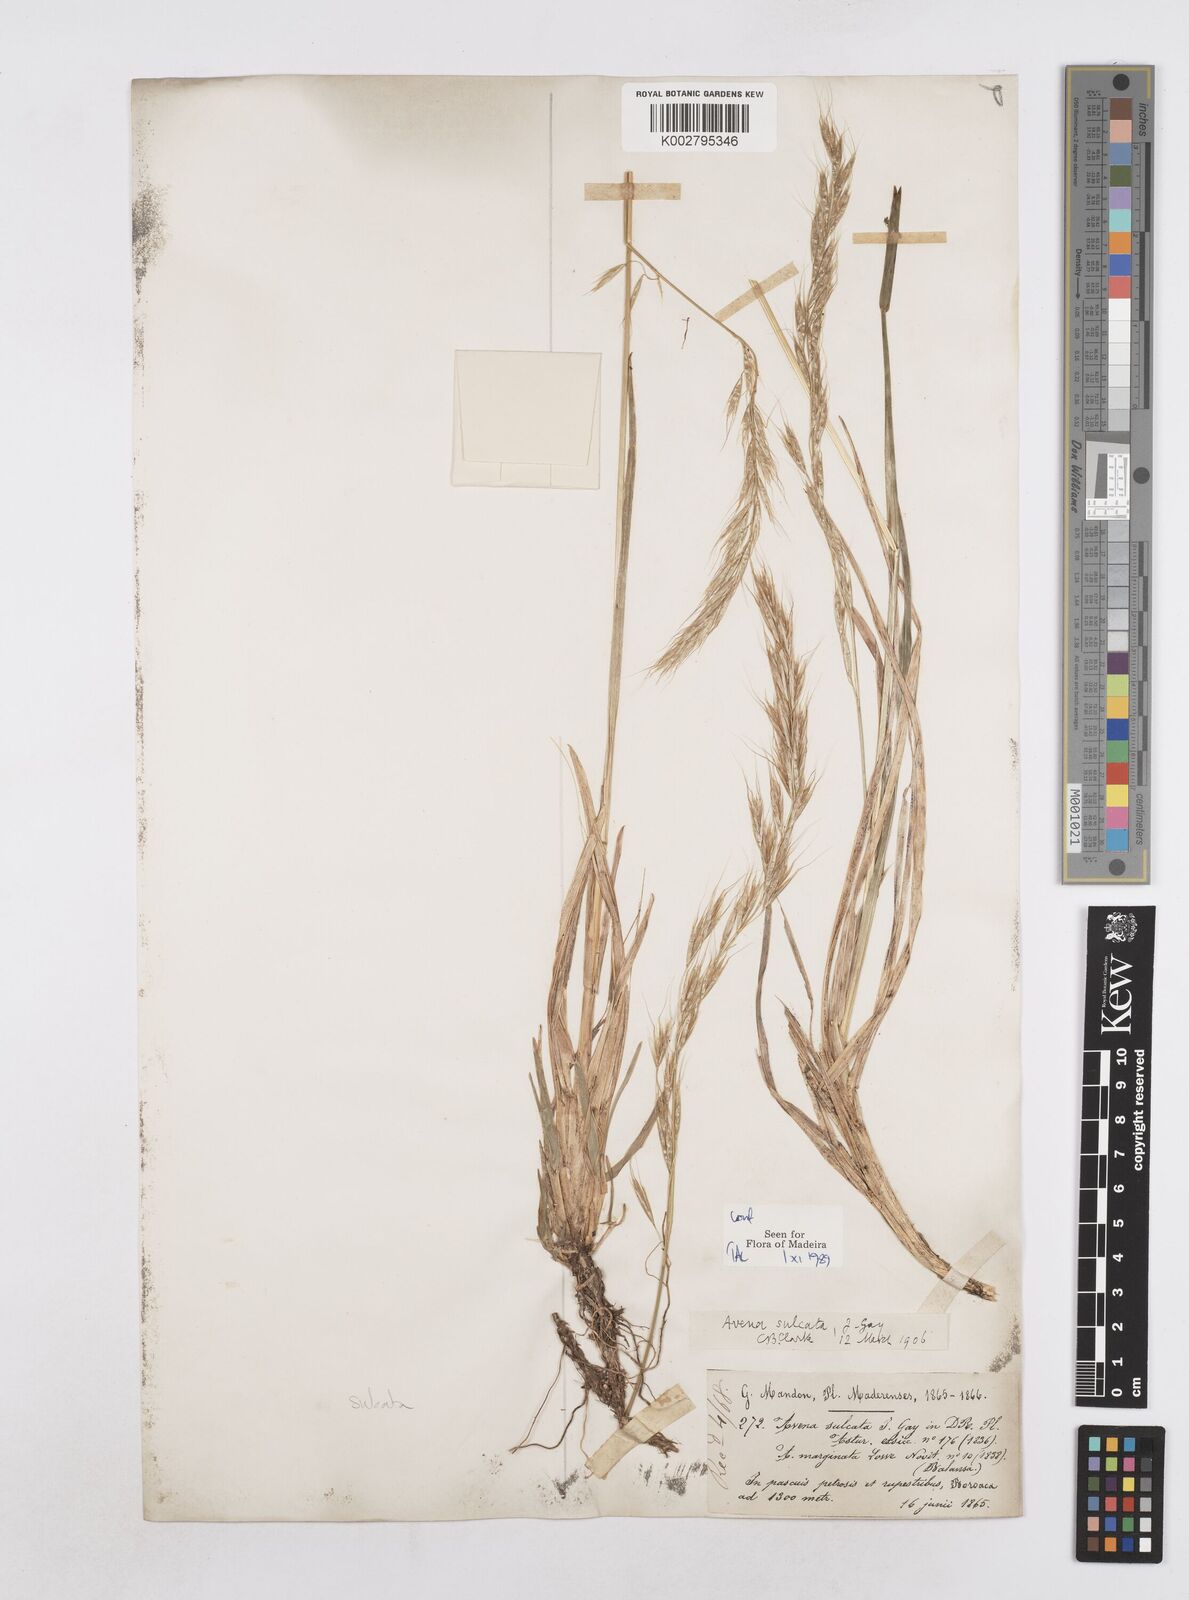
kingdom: Plantae
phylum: Tracheophyta
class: Liliopsida
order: Poales
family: Poaceae
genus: Helictotrichon
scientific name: Helictotrichon
